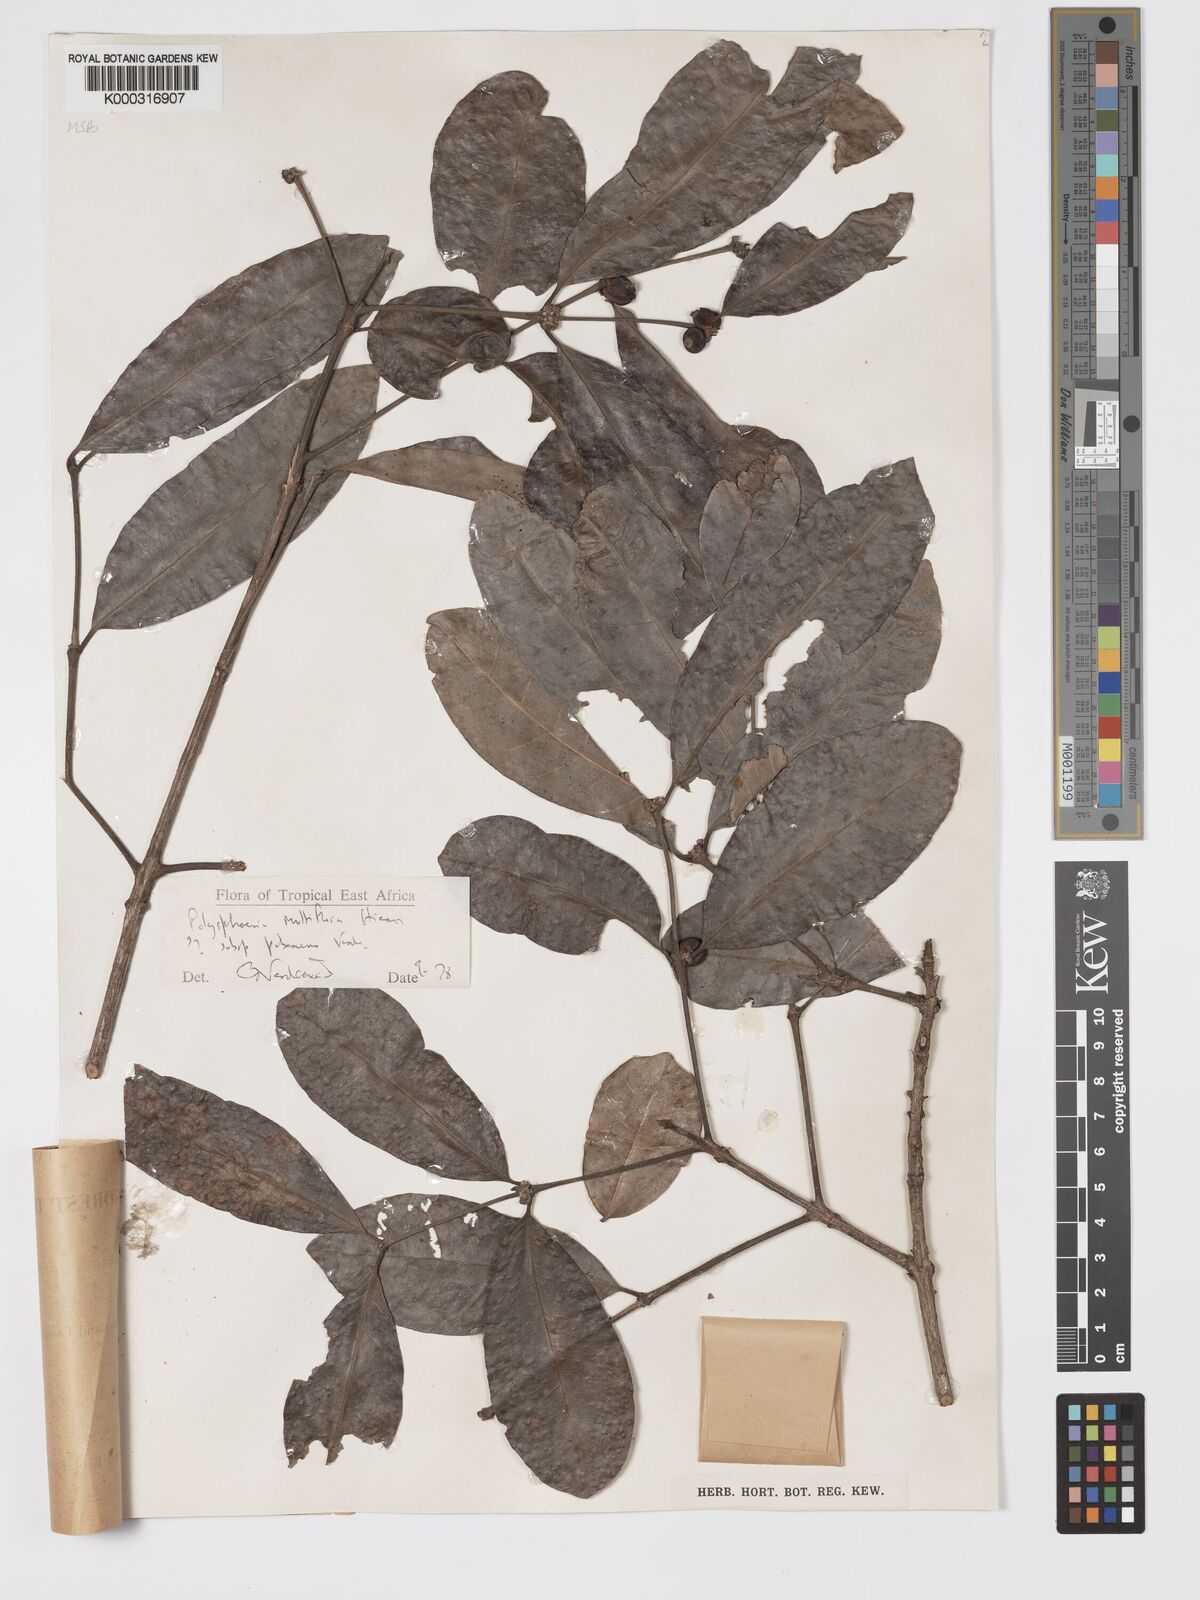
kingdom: Plantae
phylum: Tracheophyta
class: Magnoliopsida
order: Gentianales
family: Rubiaceae
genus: Polysphaeria
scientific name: Polysphaeria multiflora
